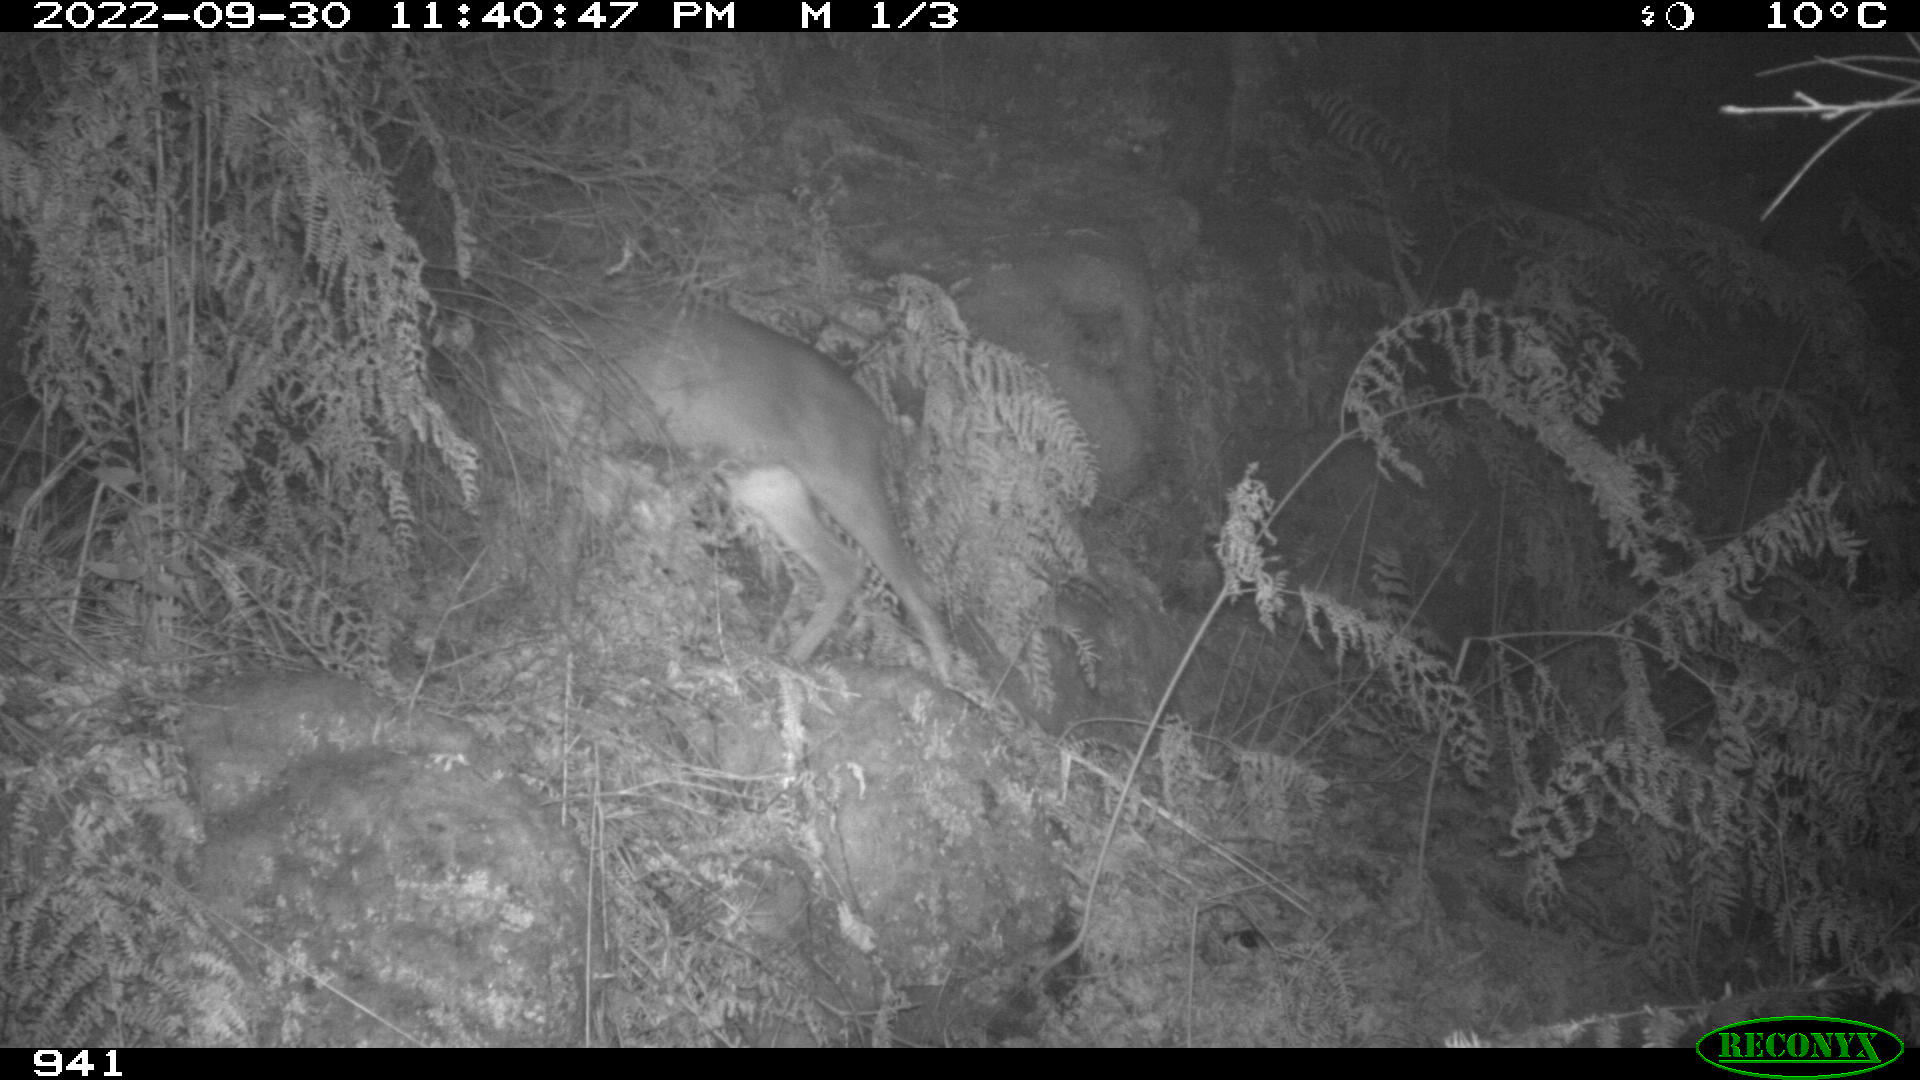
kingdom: Animalia
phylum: Chordata
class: Mammalia
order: Artiodactyla
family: Cervidae
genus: Capreolus
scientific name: Capreolus capreolus
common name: Western roe deer
